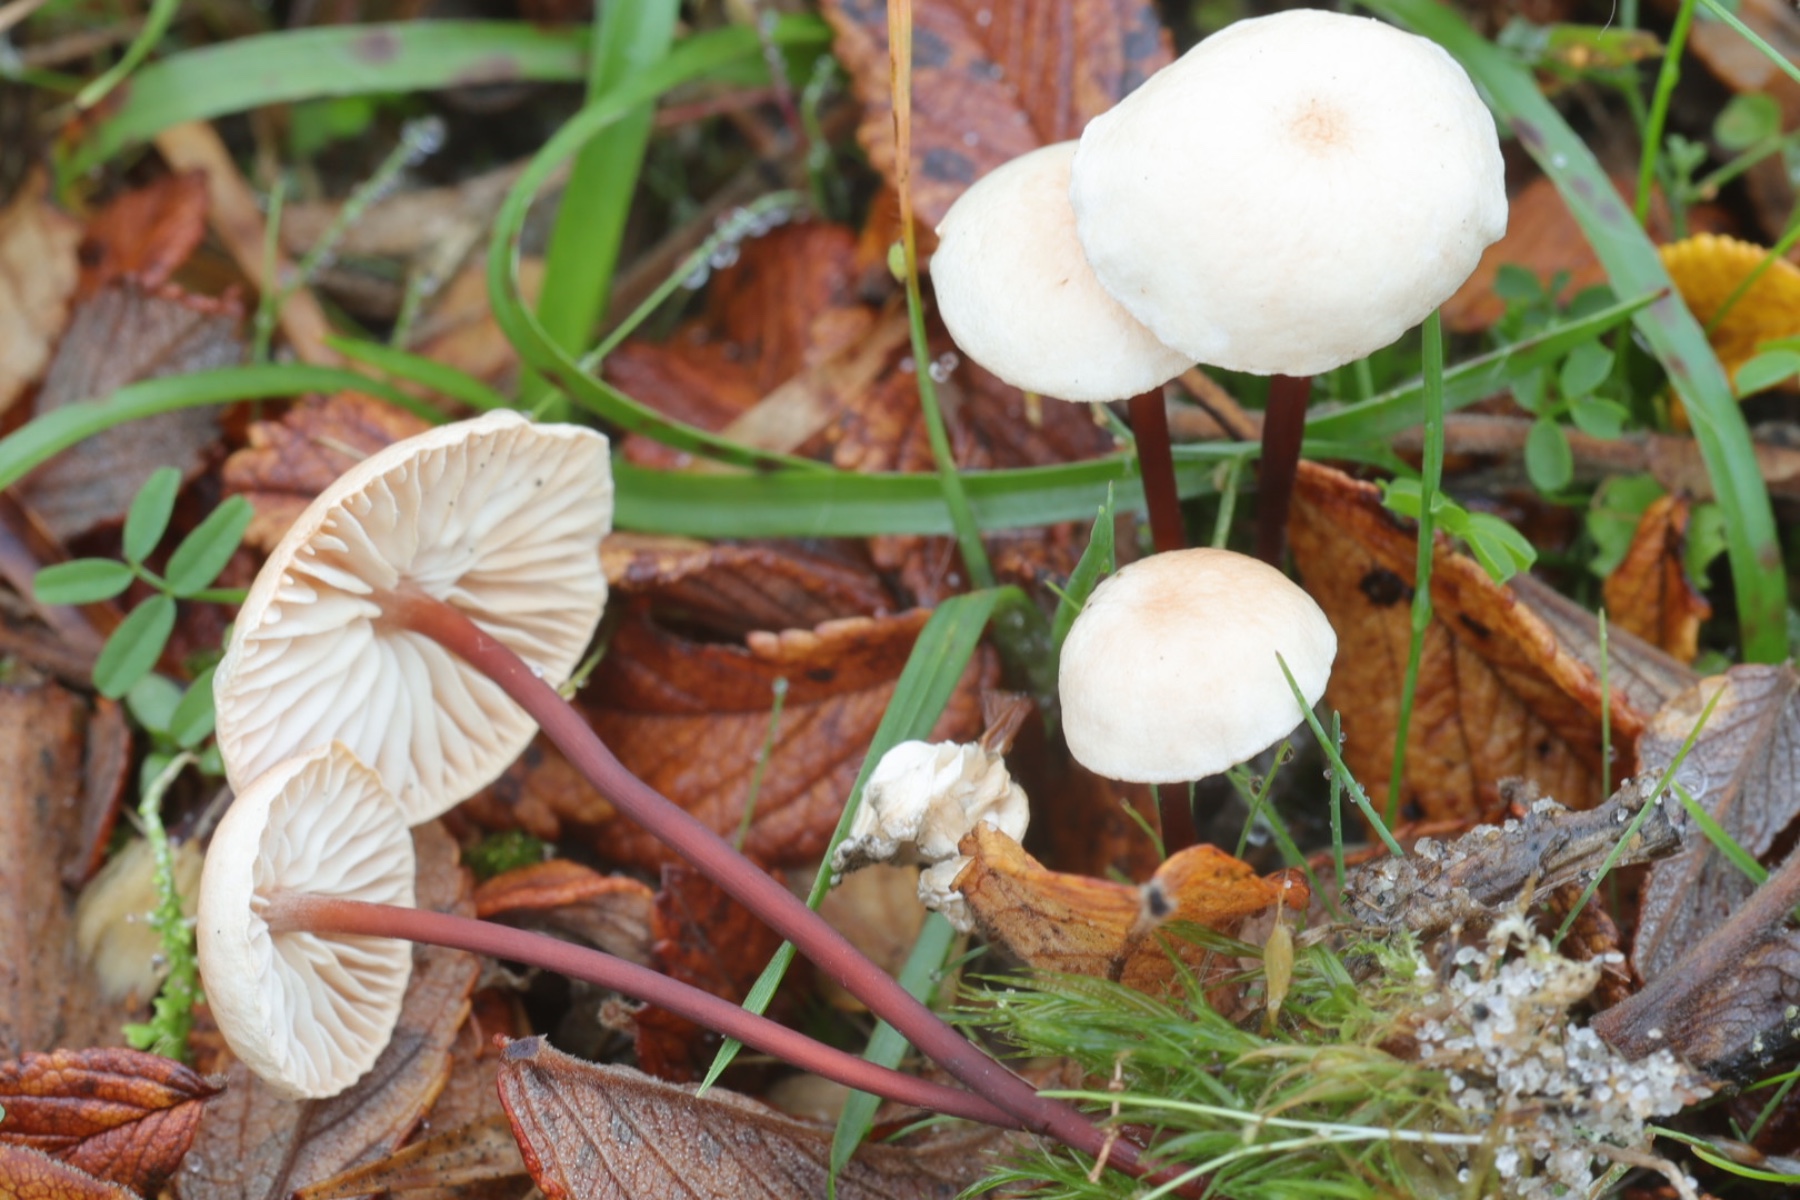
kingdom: Fungi
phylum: Basidiomycota
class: Agaricomycetes
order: Agaricales
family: Omphalotaceae
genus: Mycetinis
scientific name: Mycetinis scorodonius
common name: lille løghat
